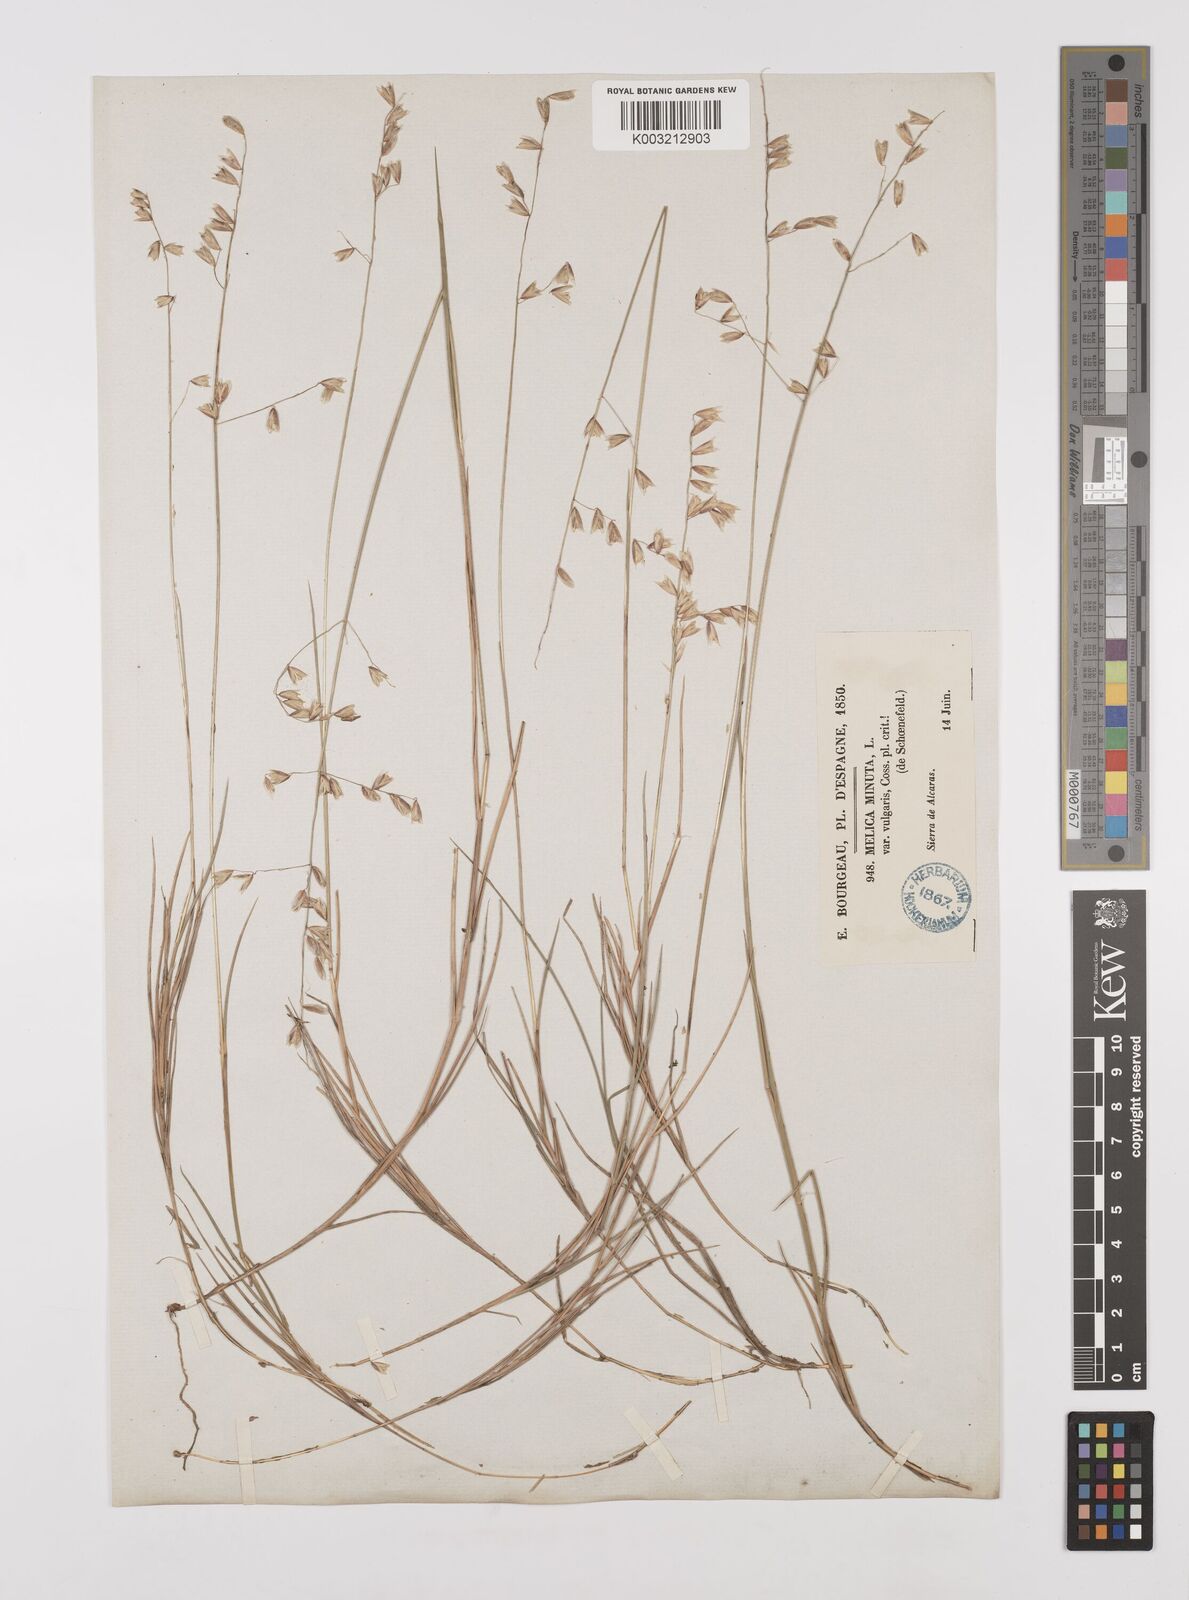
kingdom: Plantae
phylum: Tracheophyta
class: Liliopsida
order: Poales
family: Poaceae
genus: Melica
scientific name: Melica minuta
